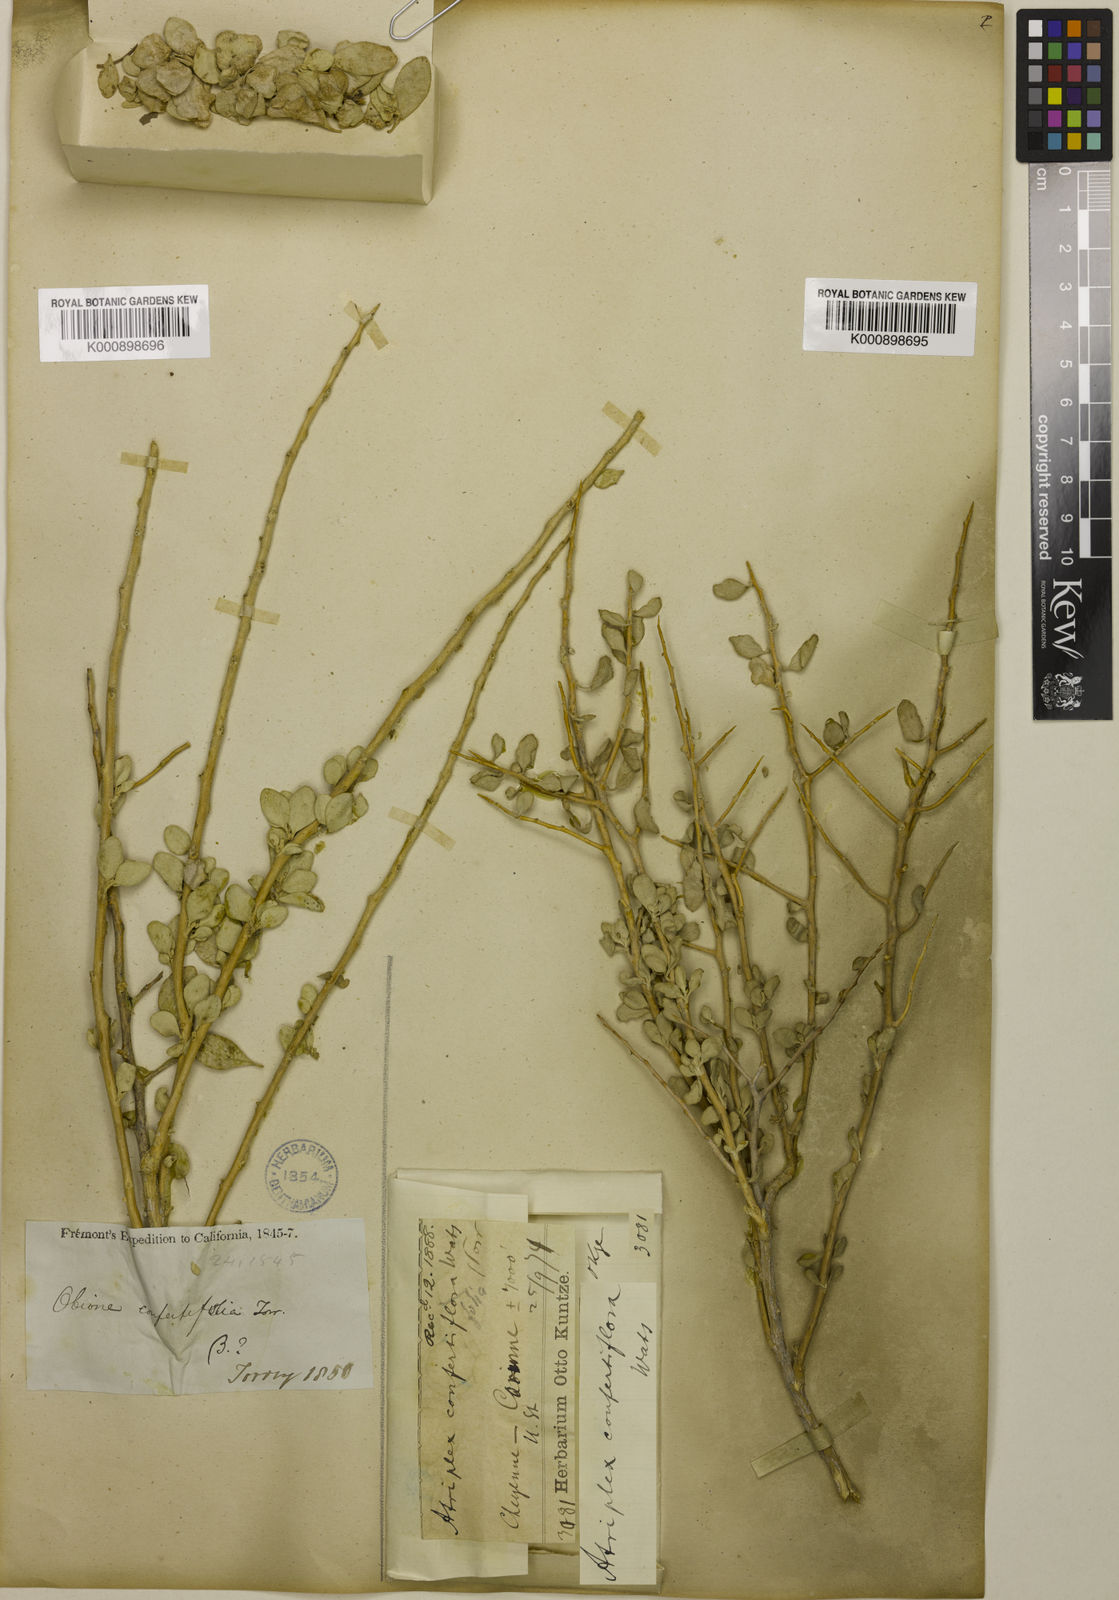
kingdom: Plantae
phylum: Tracheophyta
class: Magnoliopsida
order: Caryophyllales
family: Amaranthaceae
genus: Atriplex
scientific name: Atriplex
